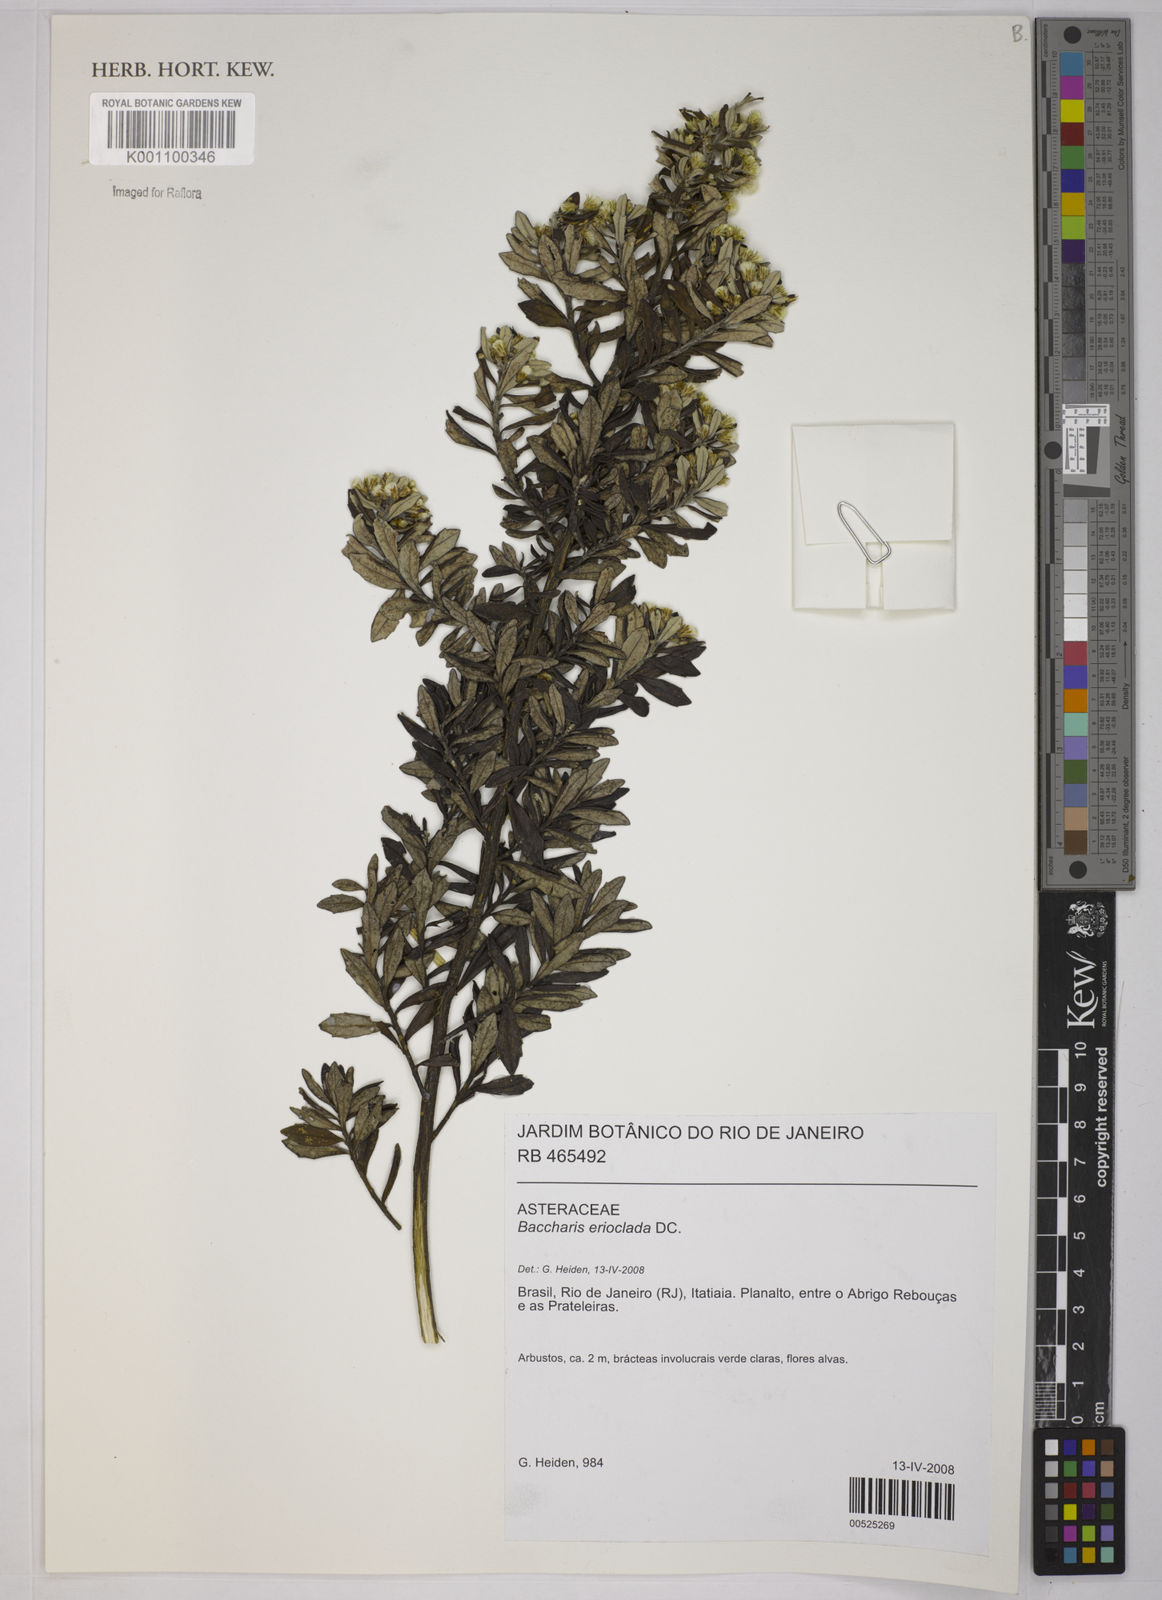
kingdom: Plantae
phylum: Tracheophyta
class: Magnoliopsida
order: Asterales
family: Asteraceae
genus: Baccharis
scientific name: Baccharis erioclada
